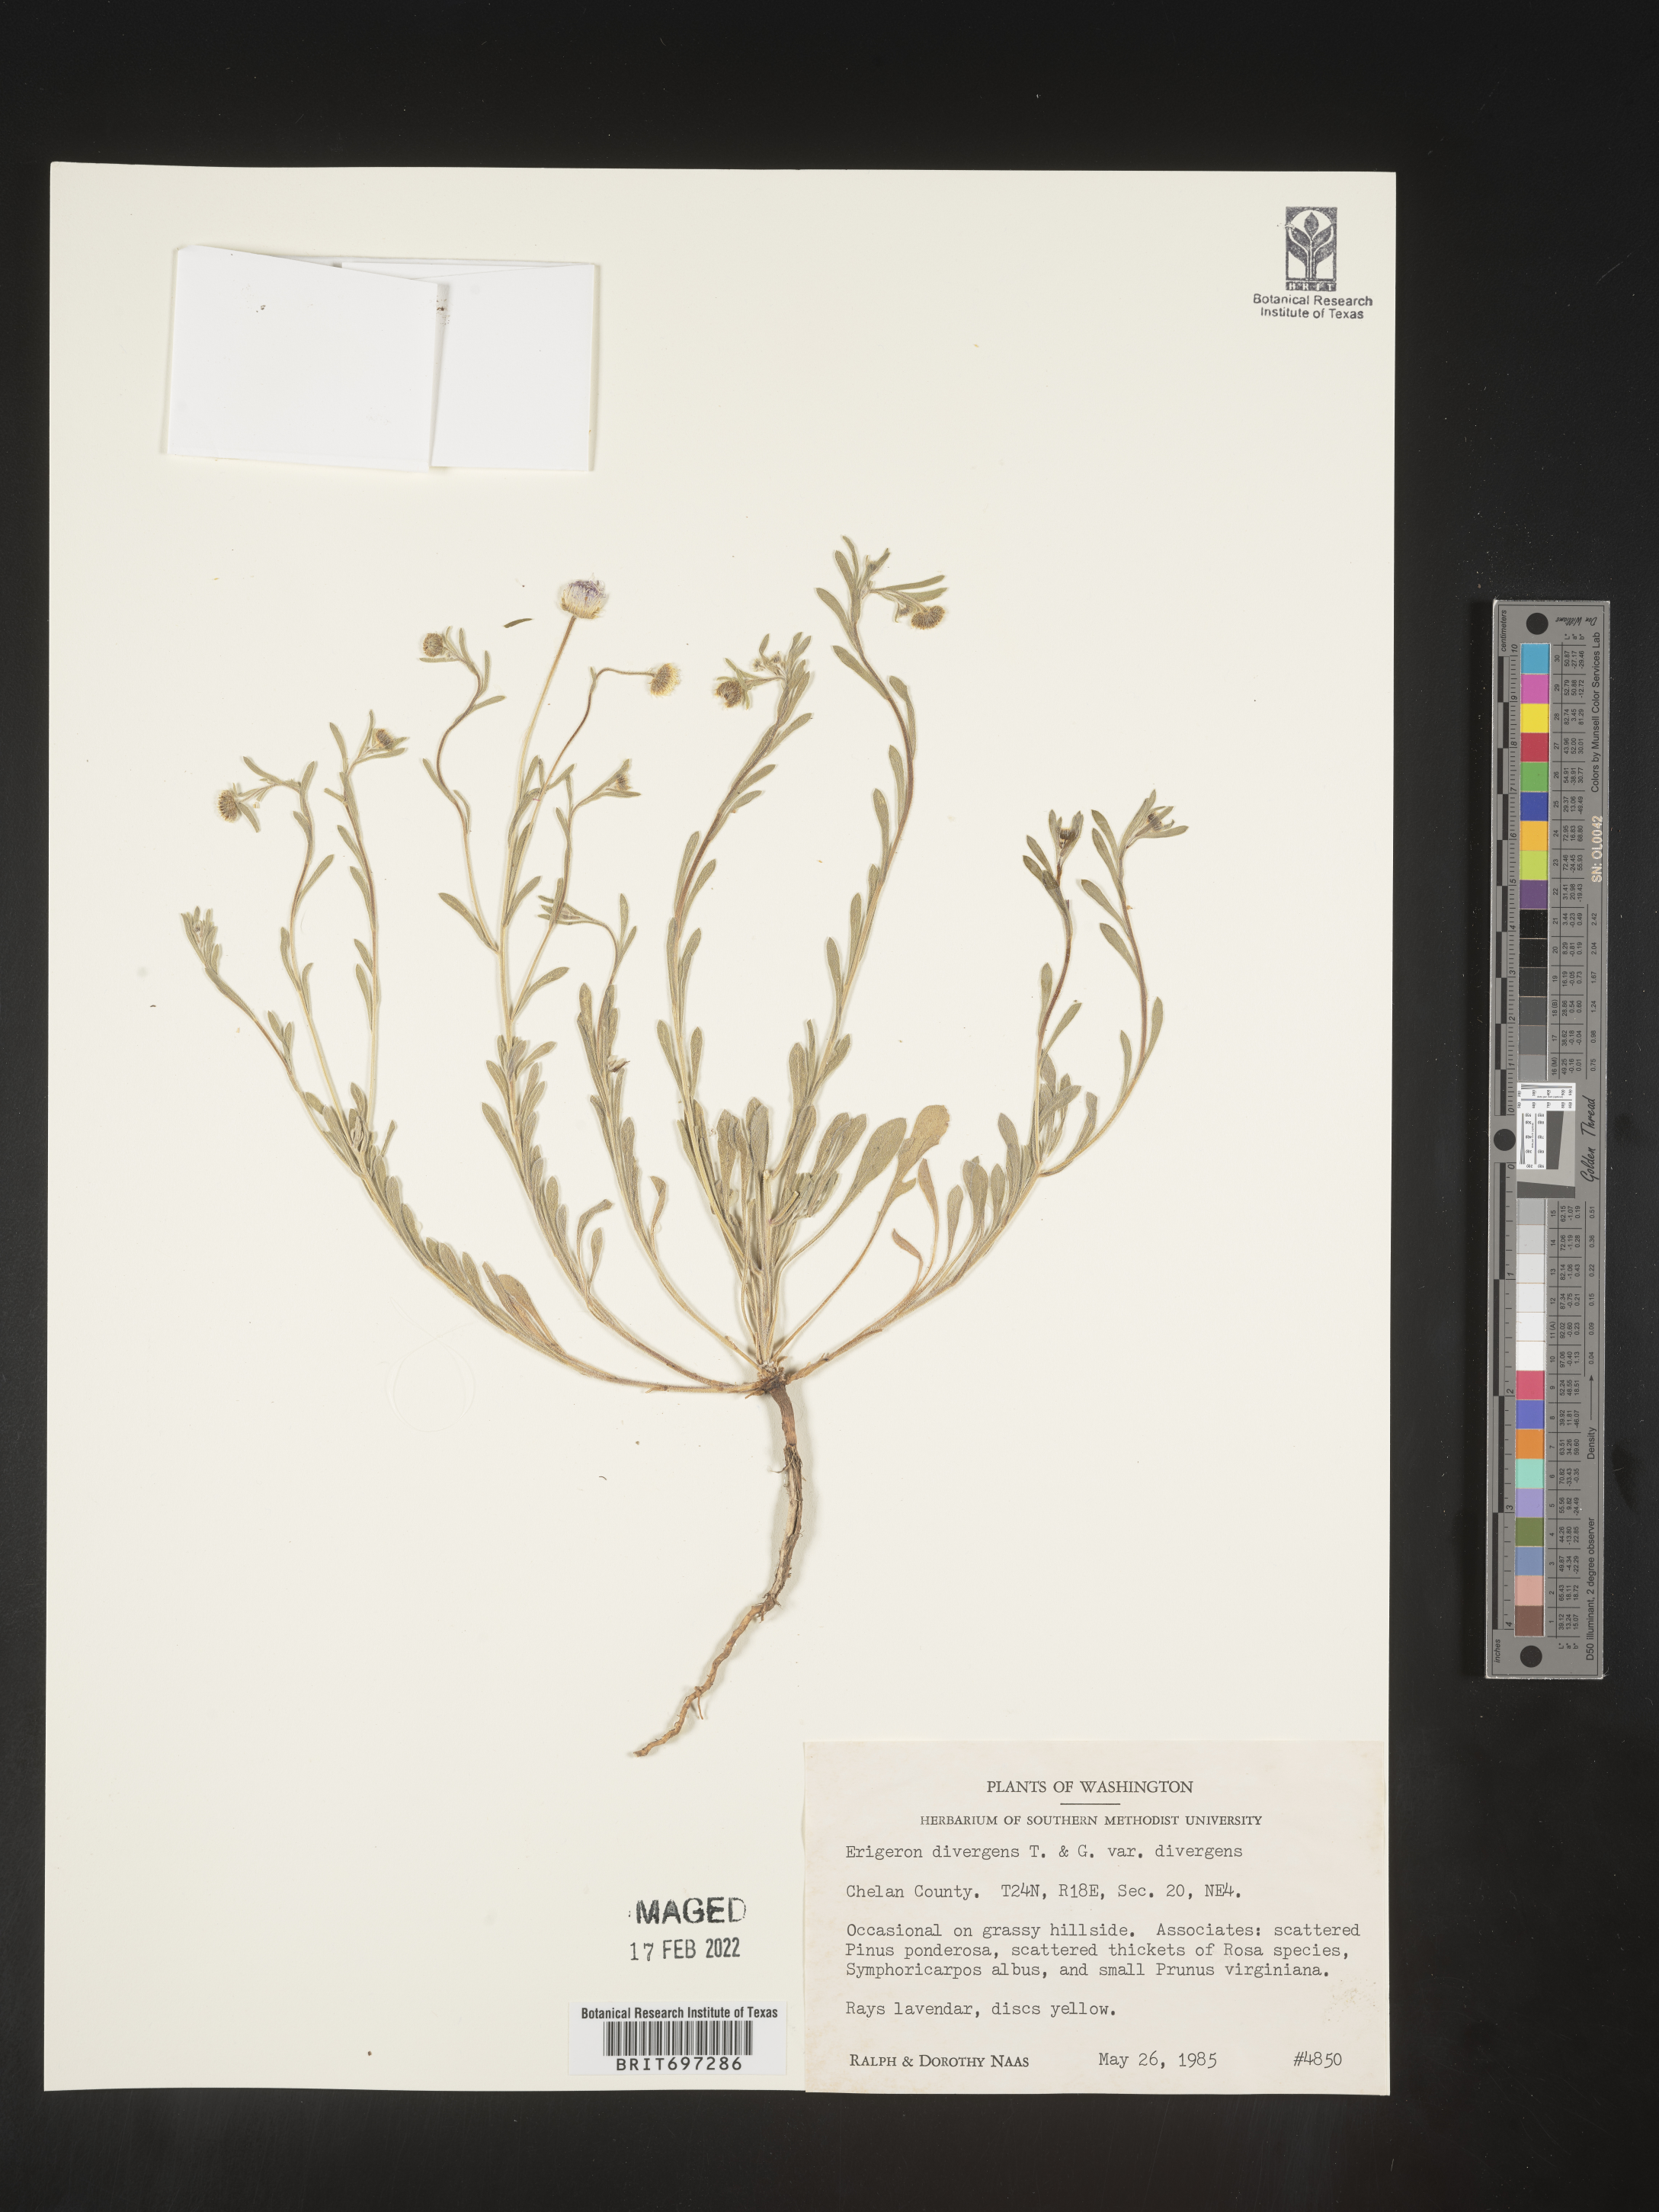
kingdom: Plantae
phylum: Tracheophyta
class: Magnoliopsida
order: Asterales
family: Asteraceae
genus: Erigeron
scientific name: Erigeron divergens
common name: Diffuse fleabane
